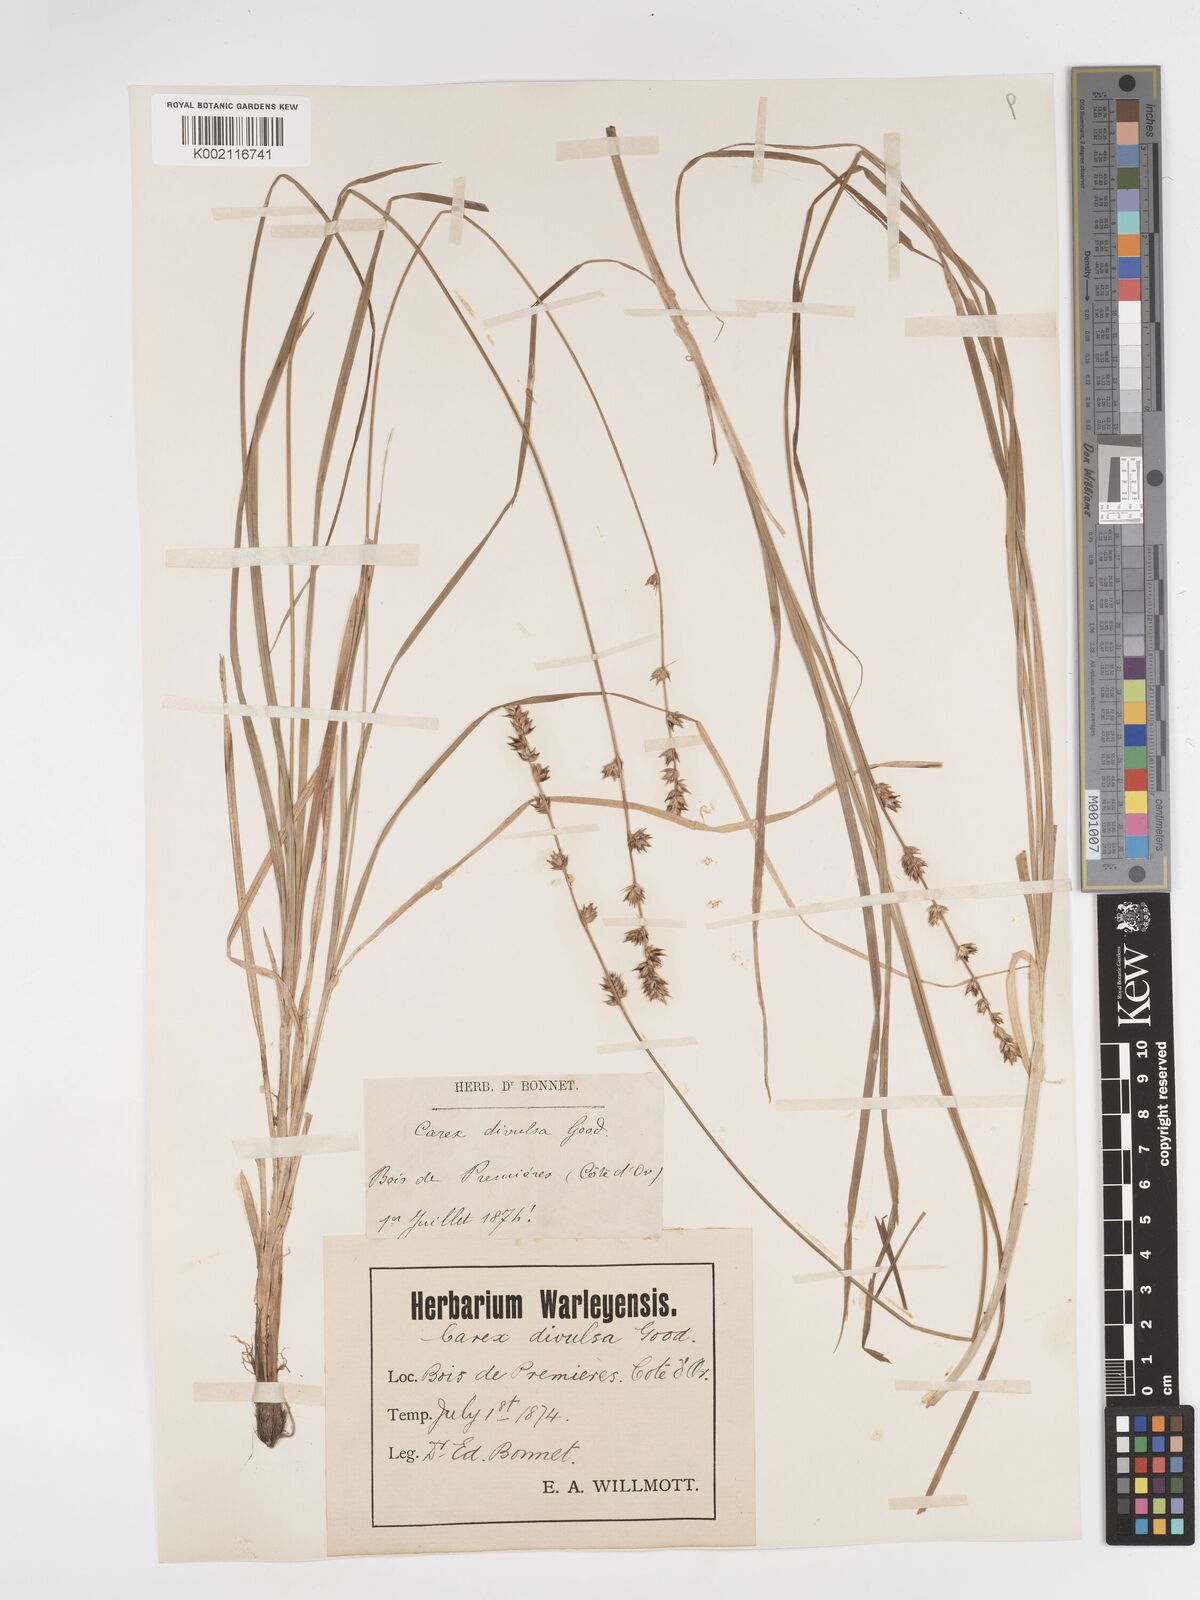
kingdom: Plantae
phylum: Tracheophyta
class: Liliopsida
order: Poales
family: Cyperaceae
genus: Carex
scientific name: Carex divulsa
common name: Grassland sedge
